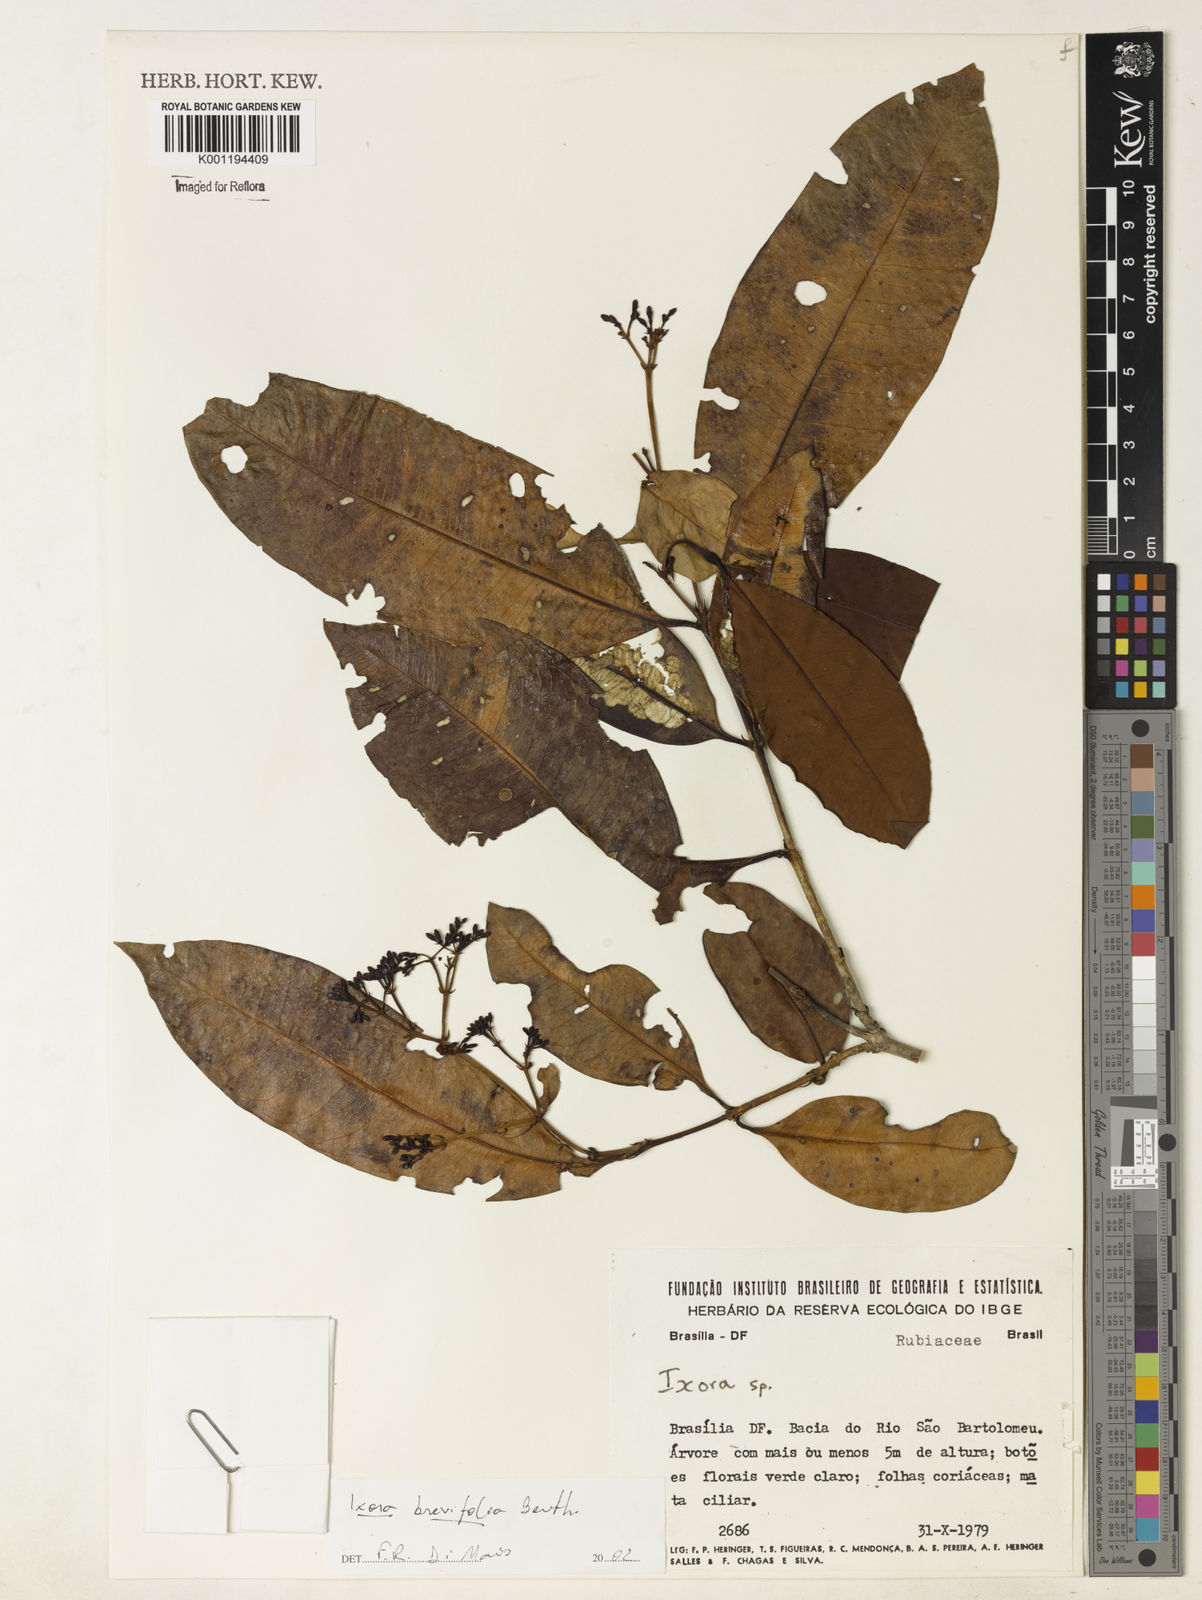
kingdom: Plantae
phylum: Tracheophyta
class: Magnoliopsida
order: Gentianales
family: Rubiaceae
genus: Ixora
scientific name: Ixora brevifolia
